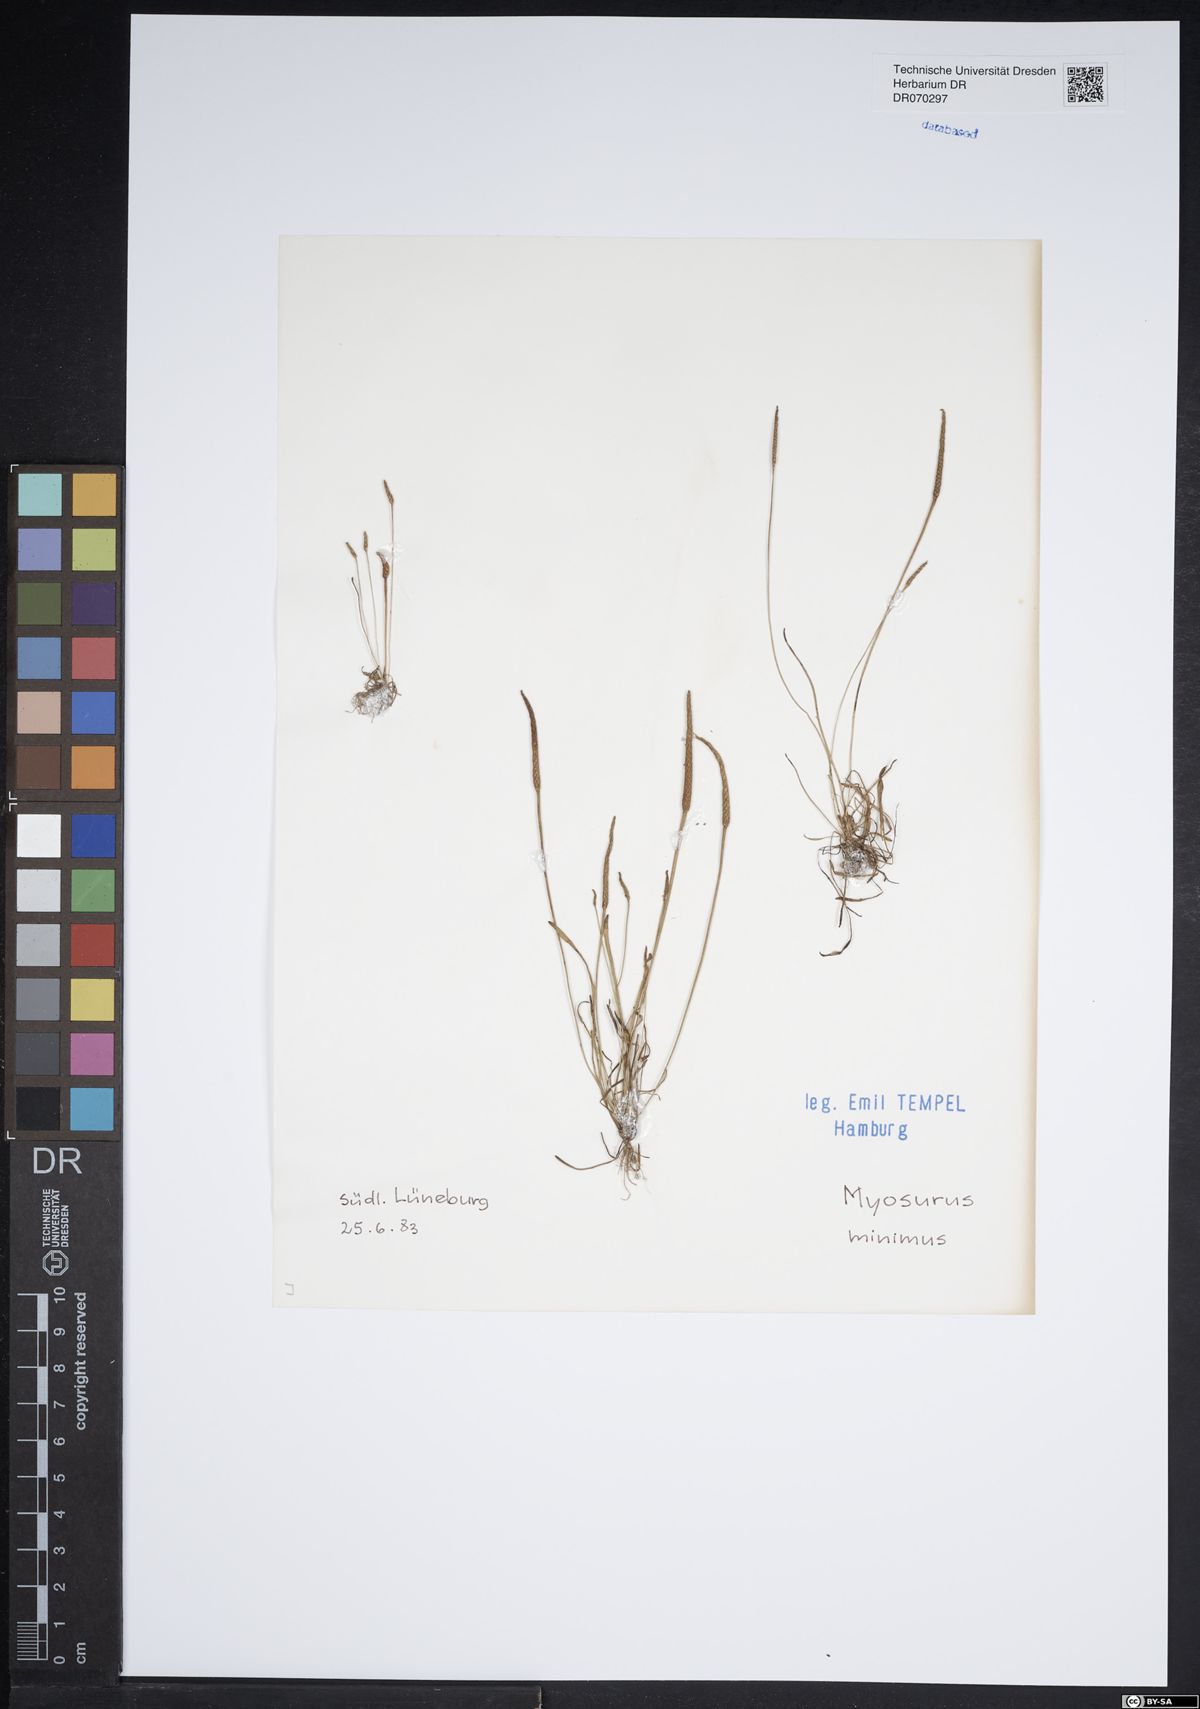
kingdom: Plantae
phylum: Tracheophyta
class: Magnoliopsida
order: Ranunculales
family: Ranunculaceae
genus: Myosurus
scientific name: Myosurus minimus
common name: Mousetail
